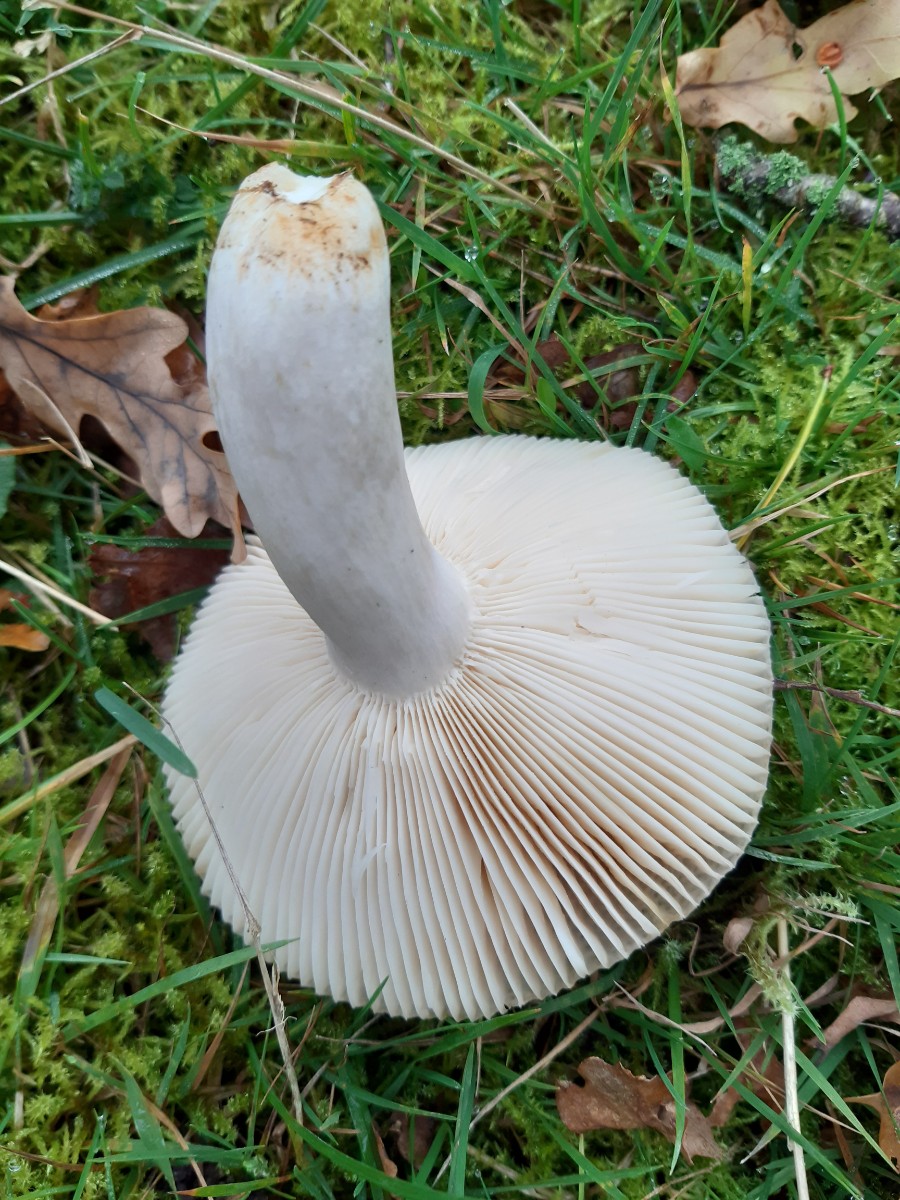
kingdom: Fungi
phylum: Basidiomycota
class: Agaricomycetes
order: Russulales
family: Russulaceae
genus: Russula
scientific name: Russula
